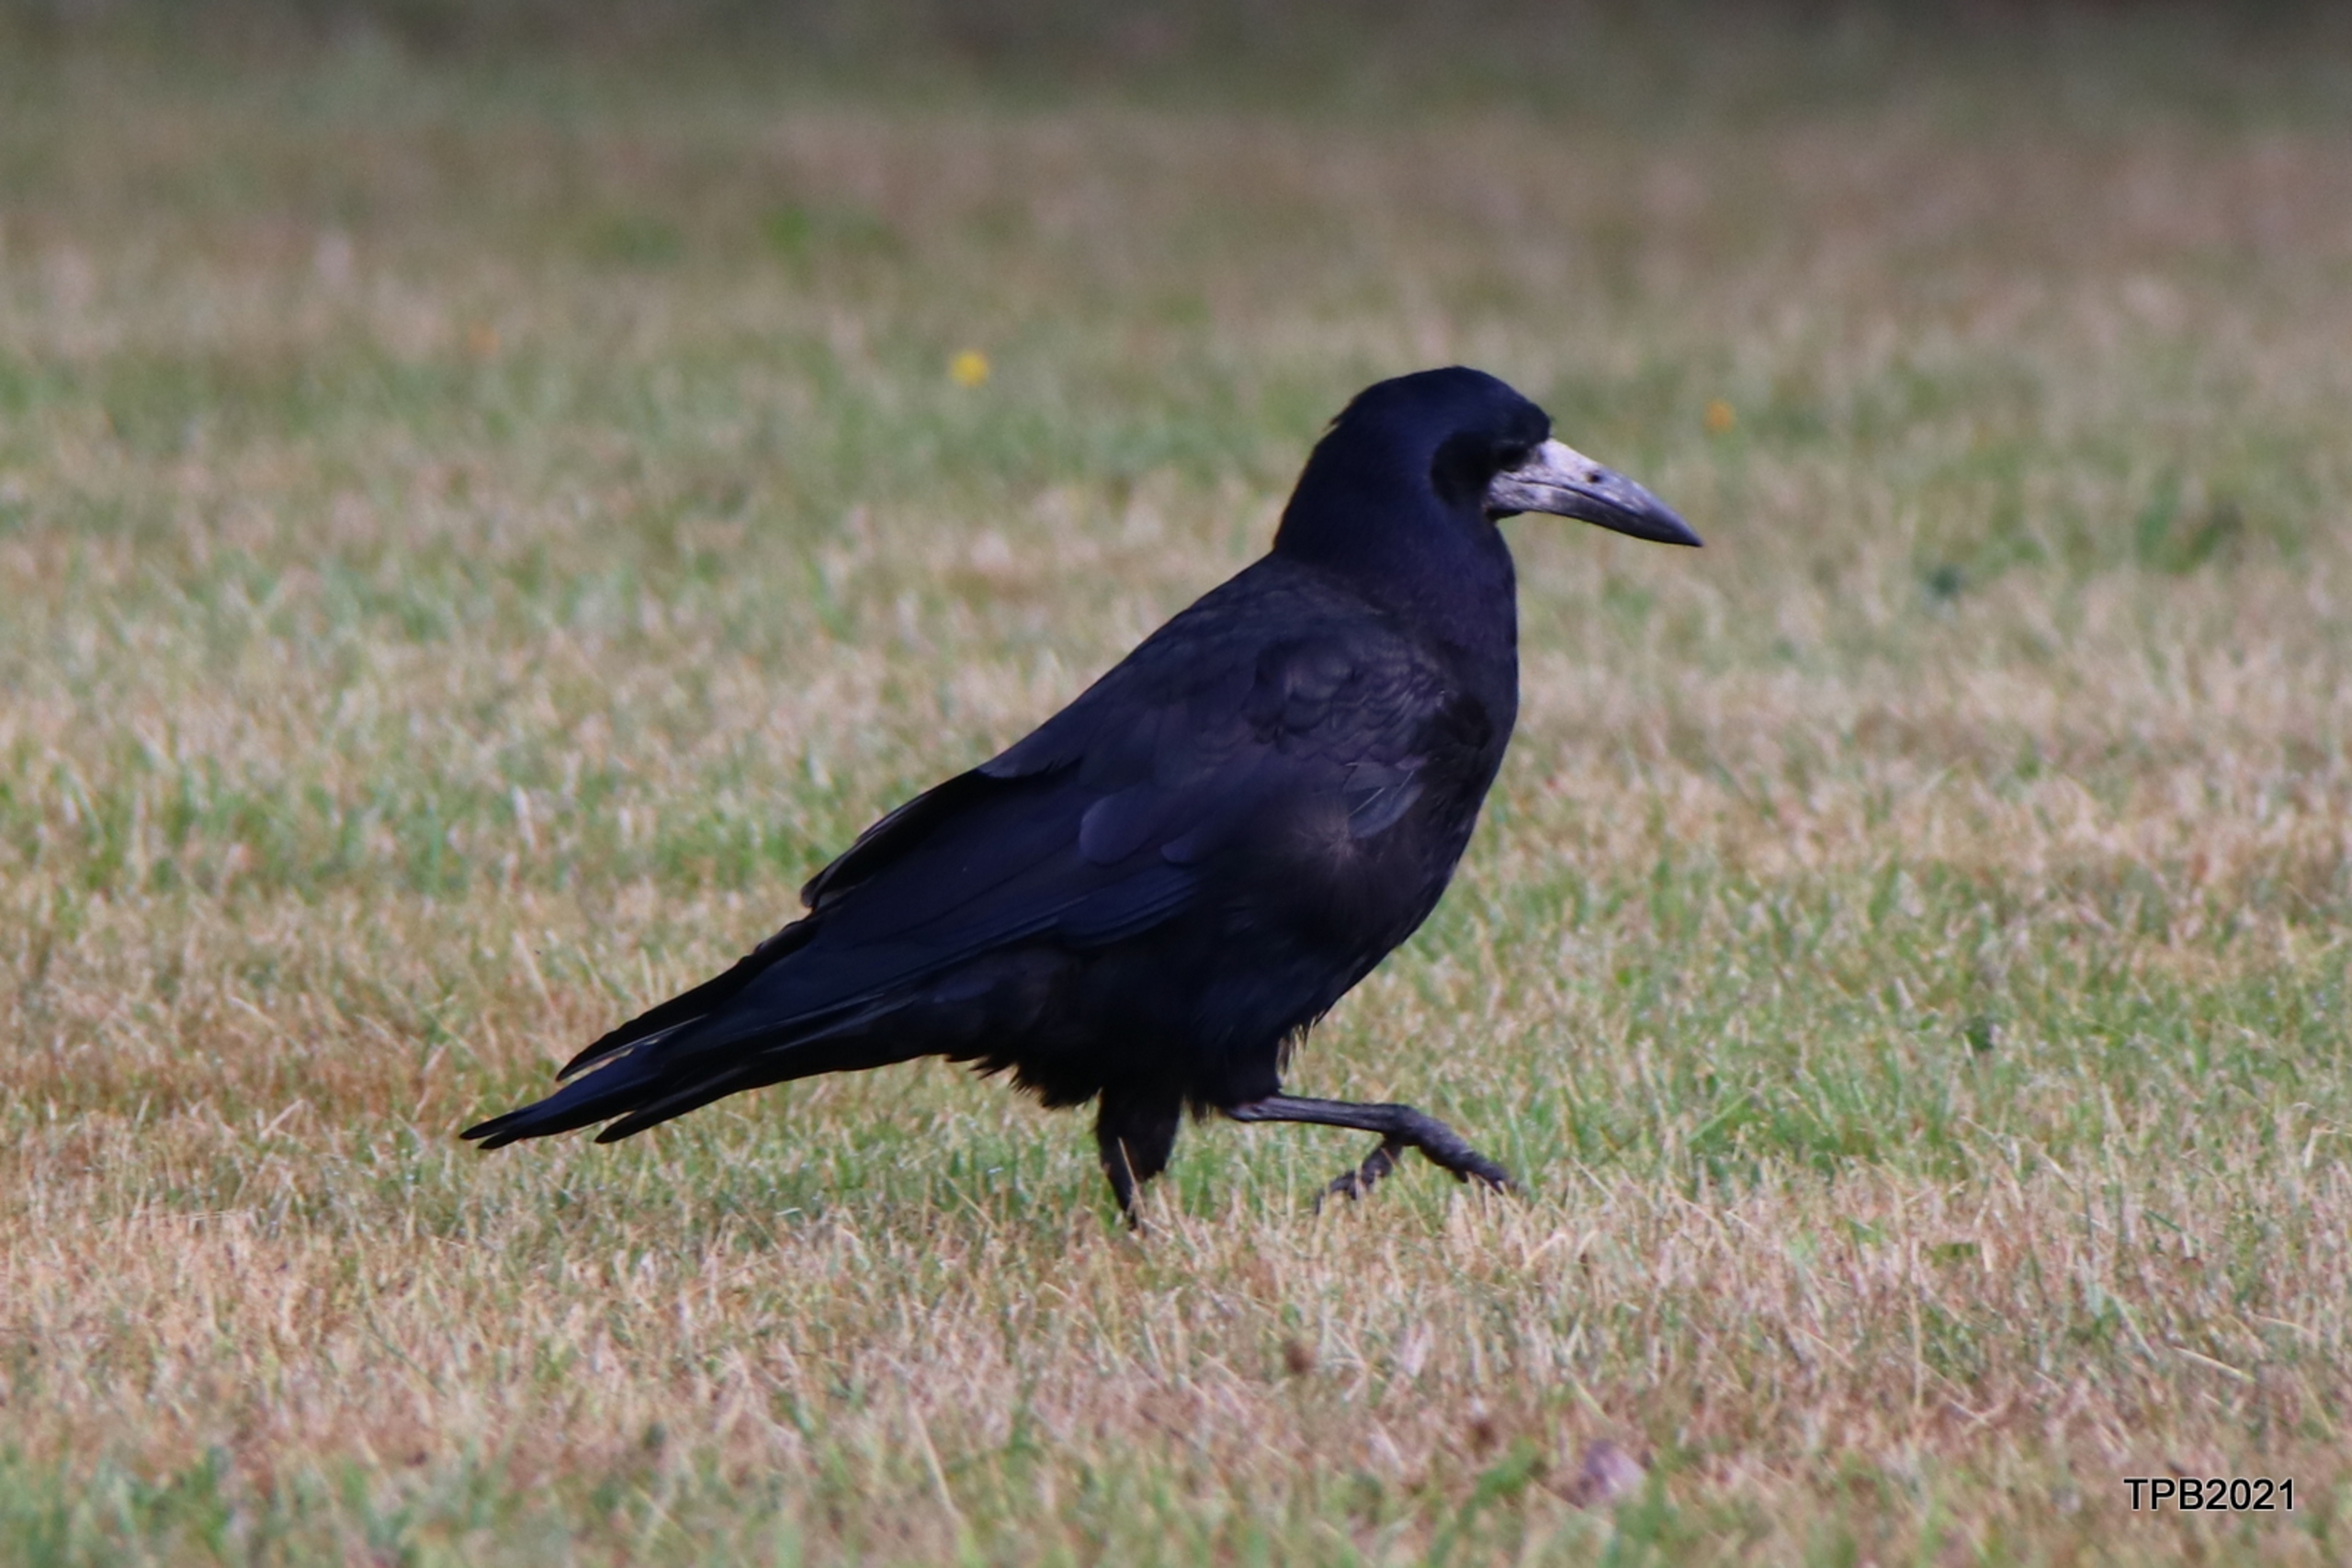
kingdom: Animalia
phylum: Chordata
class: Aves
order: Passeriformes
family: Corvidae
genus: Corvus
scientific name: Corvus frugilegus
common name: Råge
